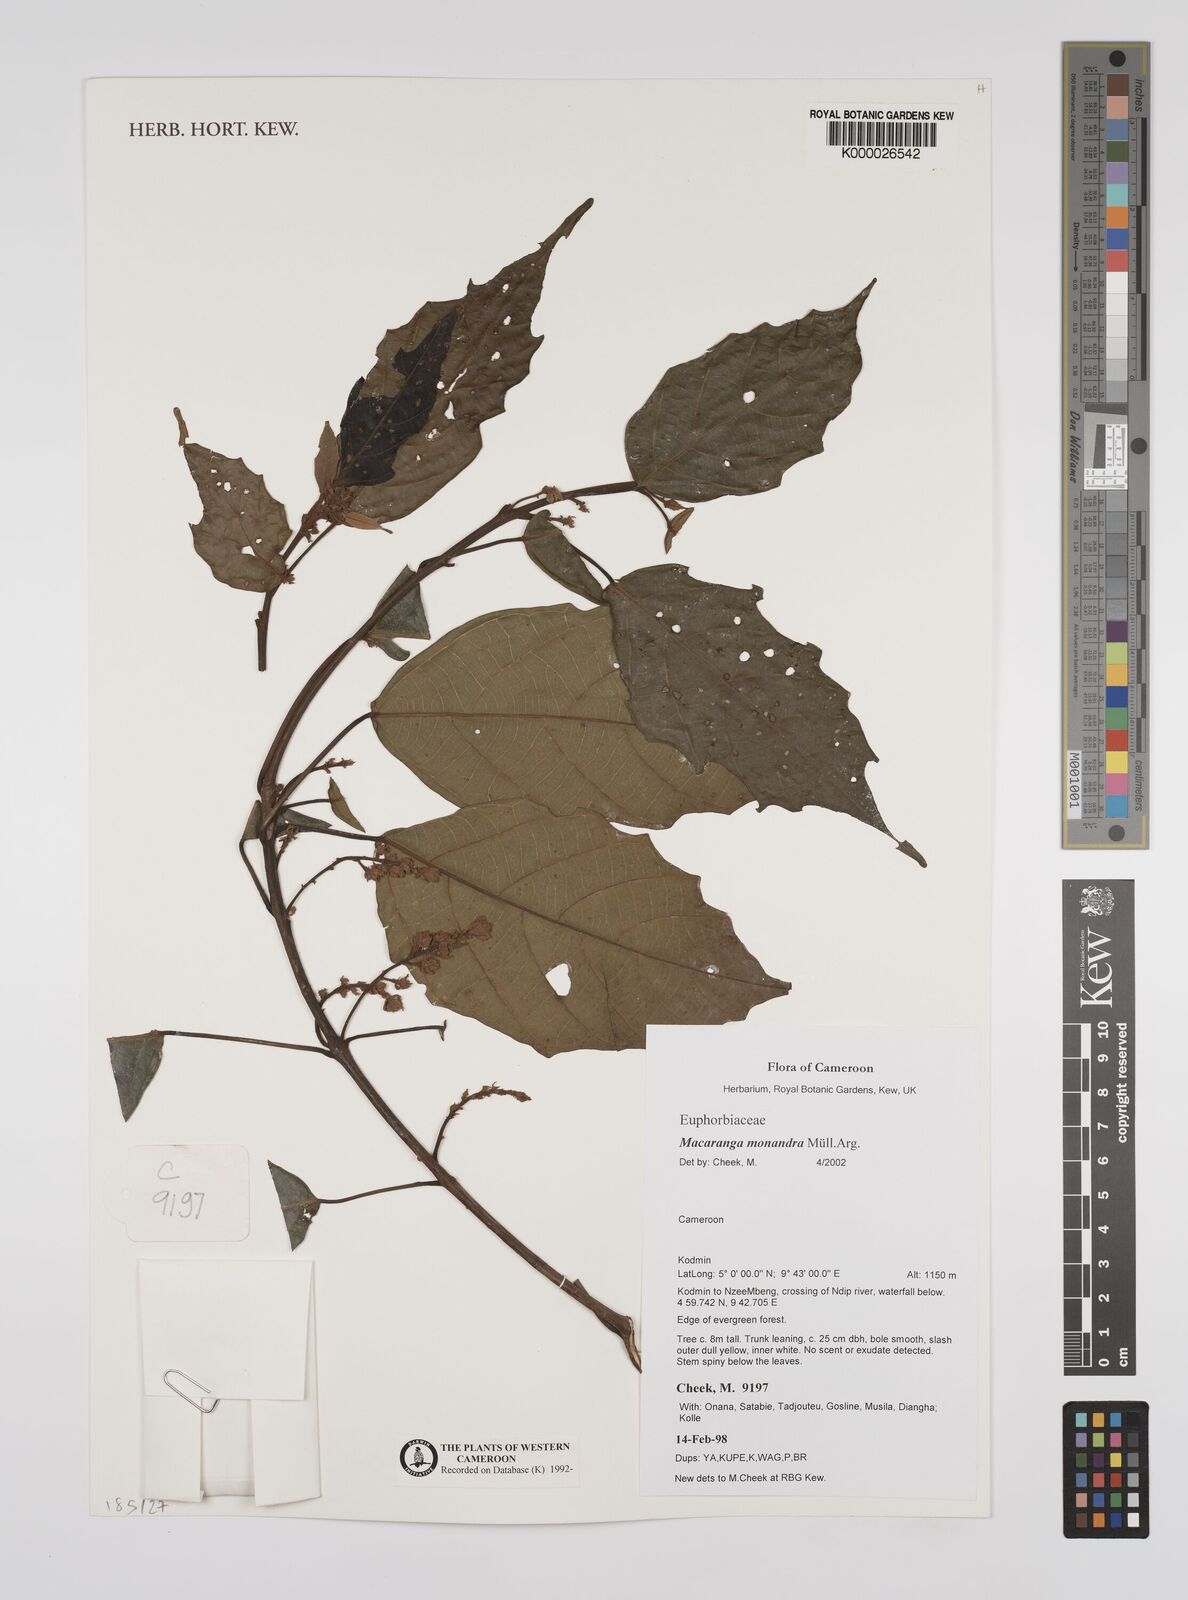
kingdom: Plantae
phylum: Tracheophyta
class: Magnoliopsida
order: Malpighiales
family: Euphorbiaceae
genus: Macaranga
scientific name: Macaranga
